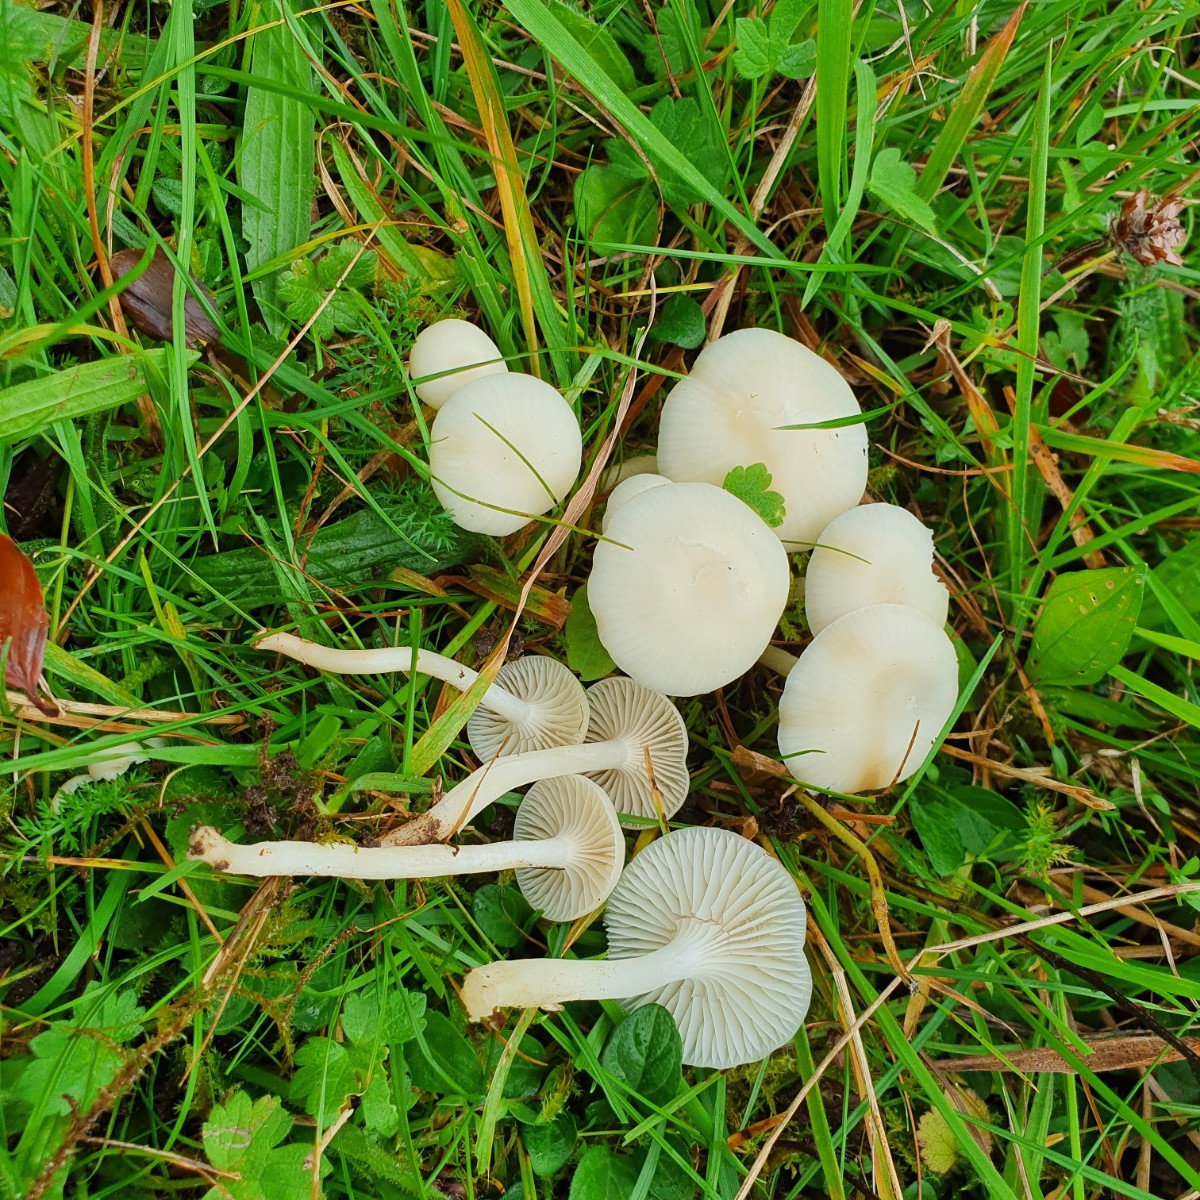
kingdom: Fungi
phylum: Basidiomycota
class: Agaricomycetes
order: Agaricales
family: Hygrophoraceae
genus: Cuphophyllus
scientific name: Cuphophyllus virgineus
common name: snehvid vokshat
